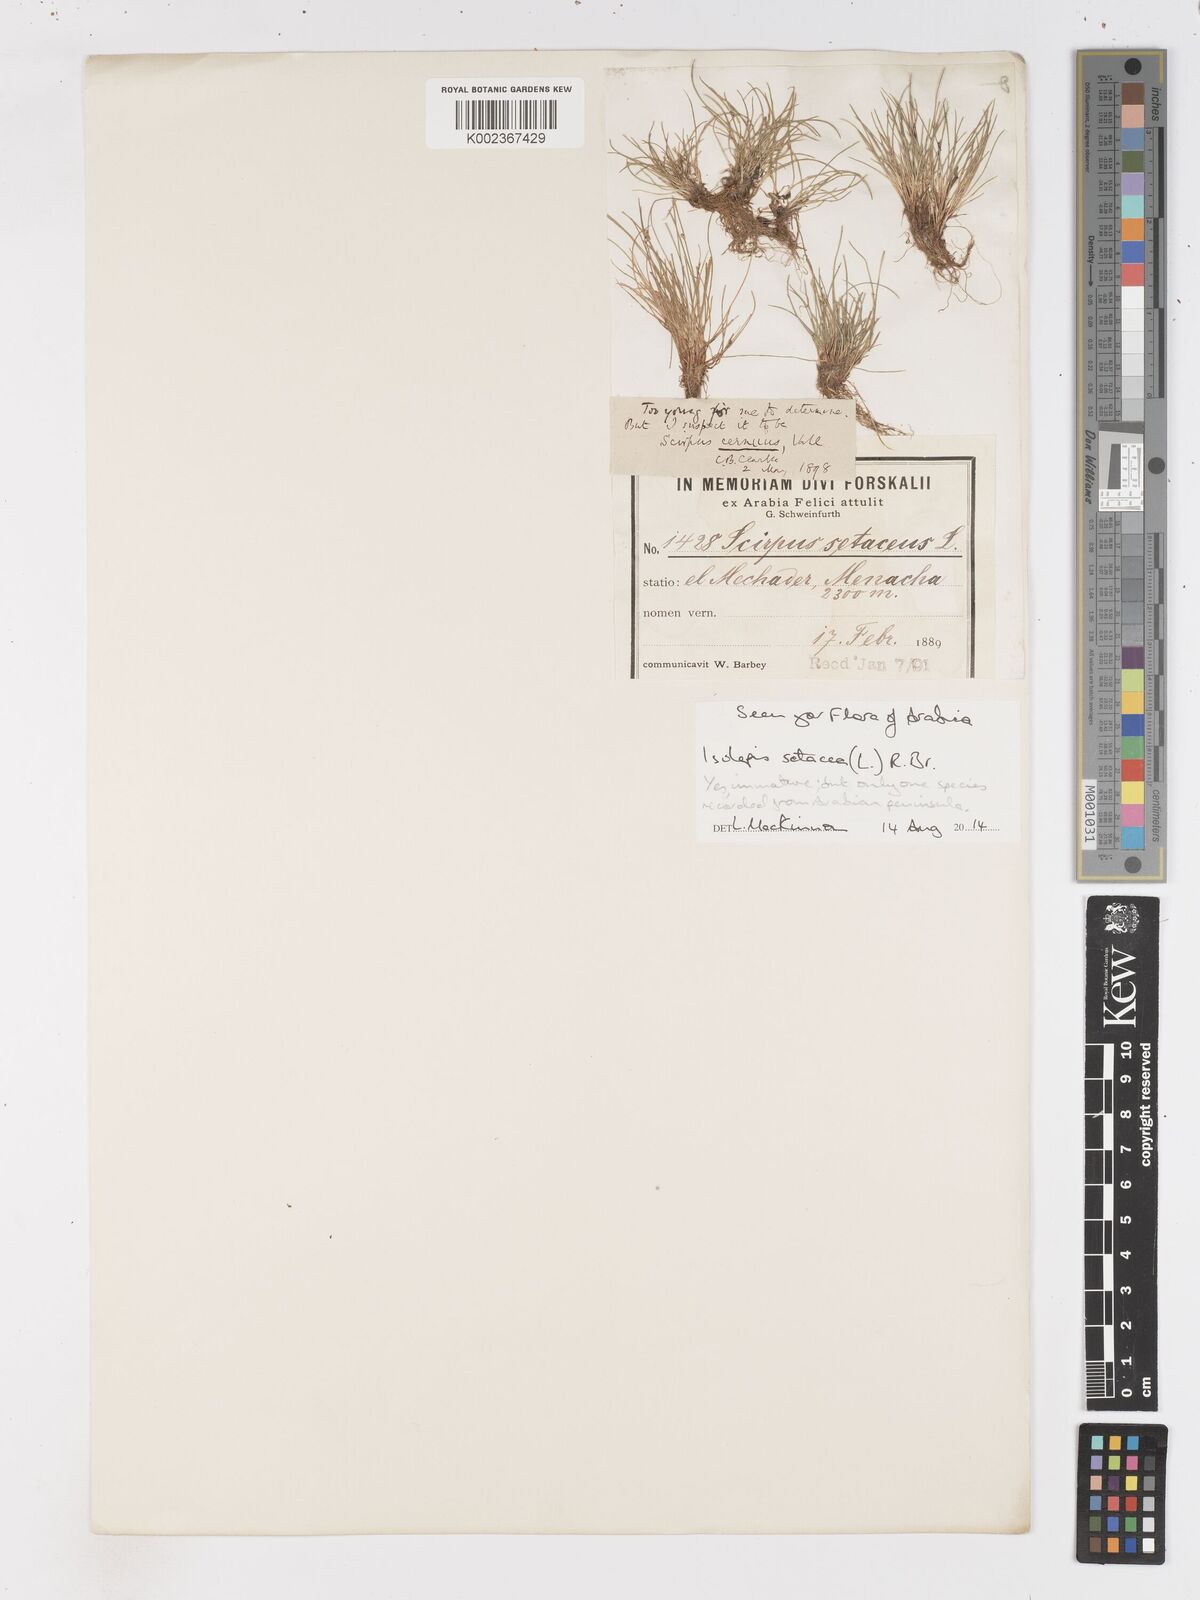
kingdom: Plantae
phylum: Tracheophyta
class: Liliopsida
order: Poales
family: Cyperaceae
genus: Isolepis
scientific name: Isolepis setacea
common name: Bristle club-rush
